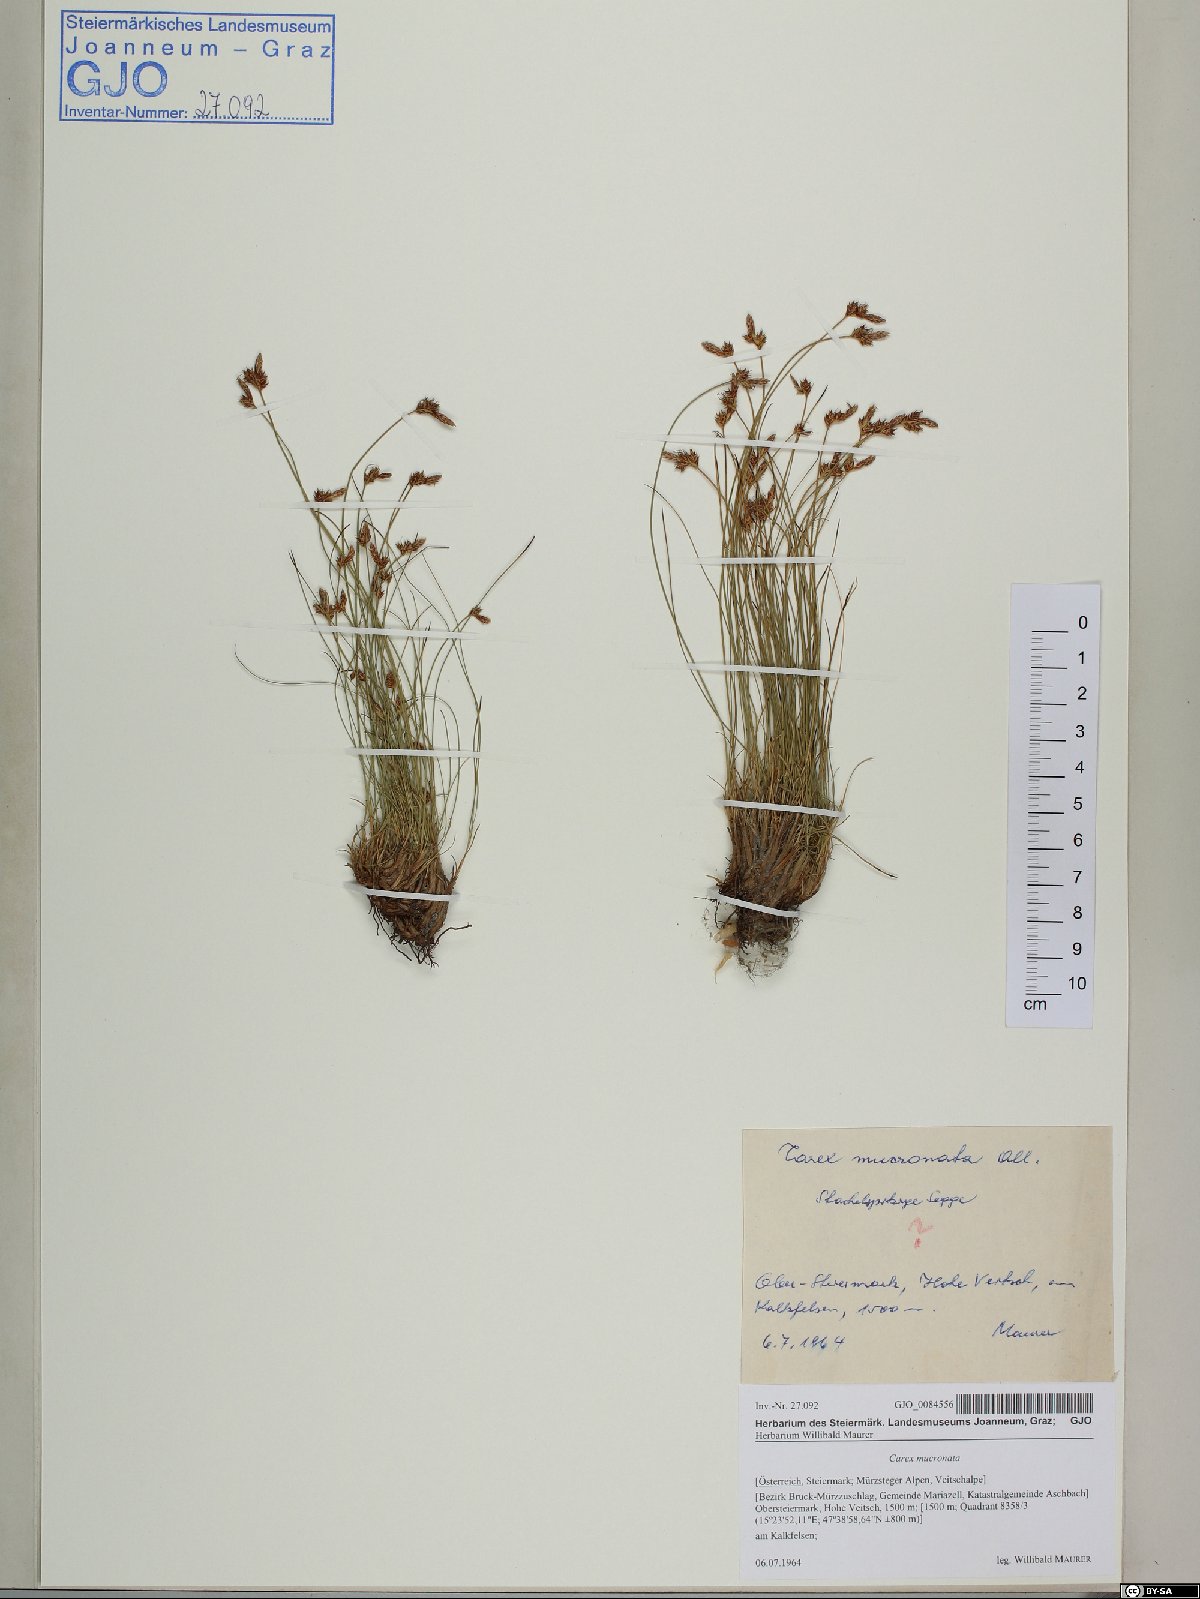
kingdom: Plantae
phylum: Tracheophyta
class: Liliopsida
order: Poales
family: Cyperaceae
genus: Carex
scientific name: Carex mucronata
